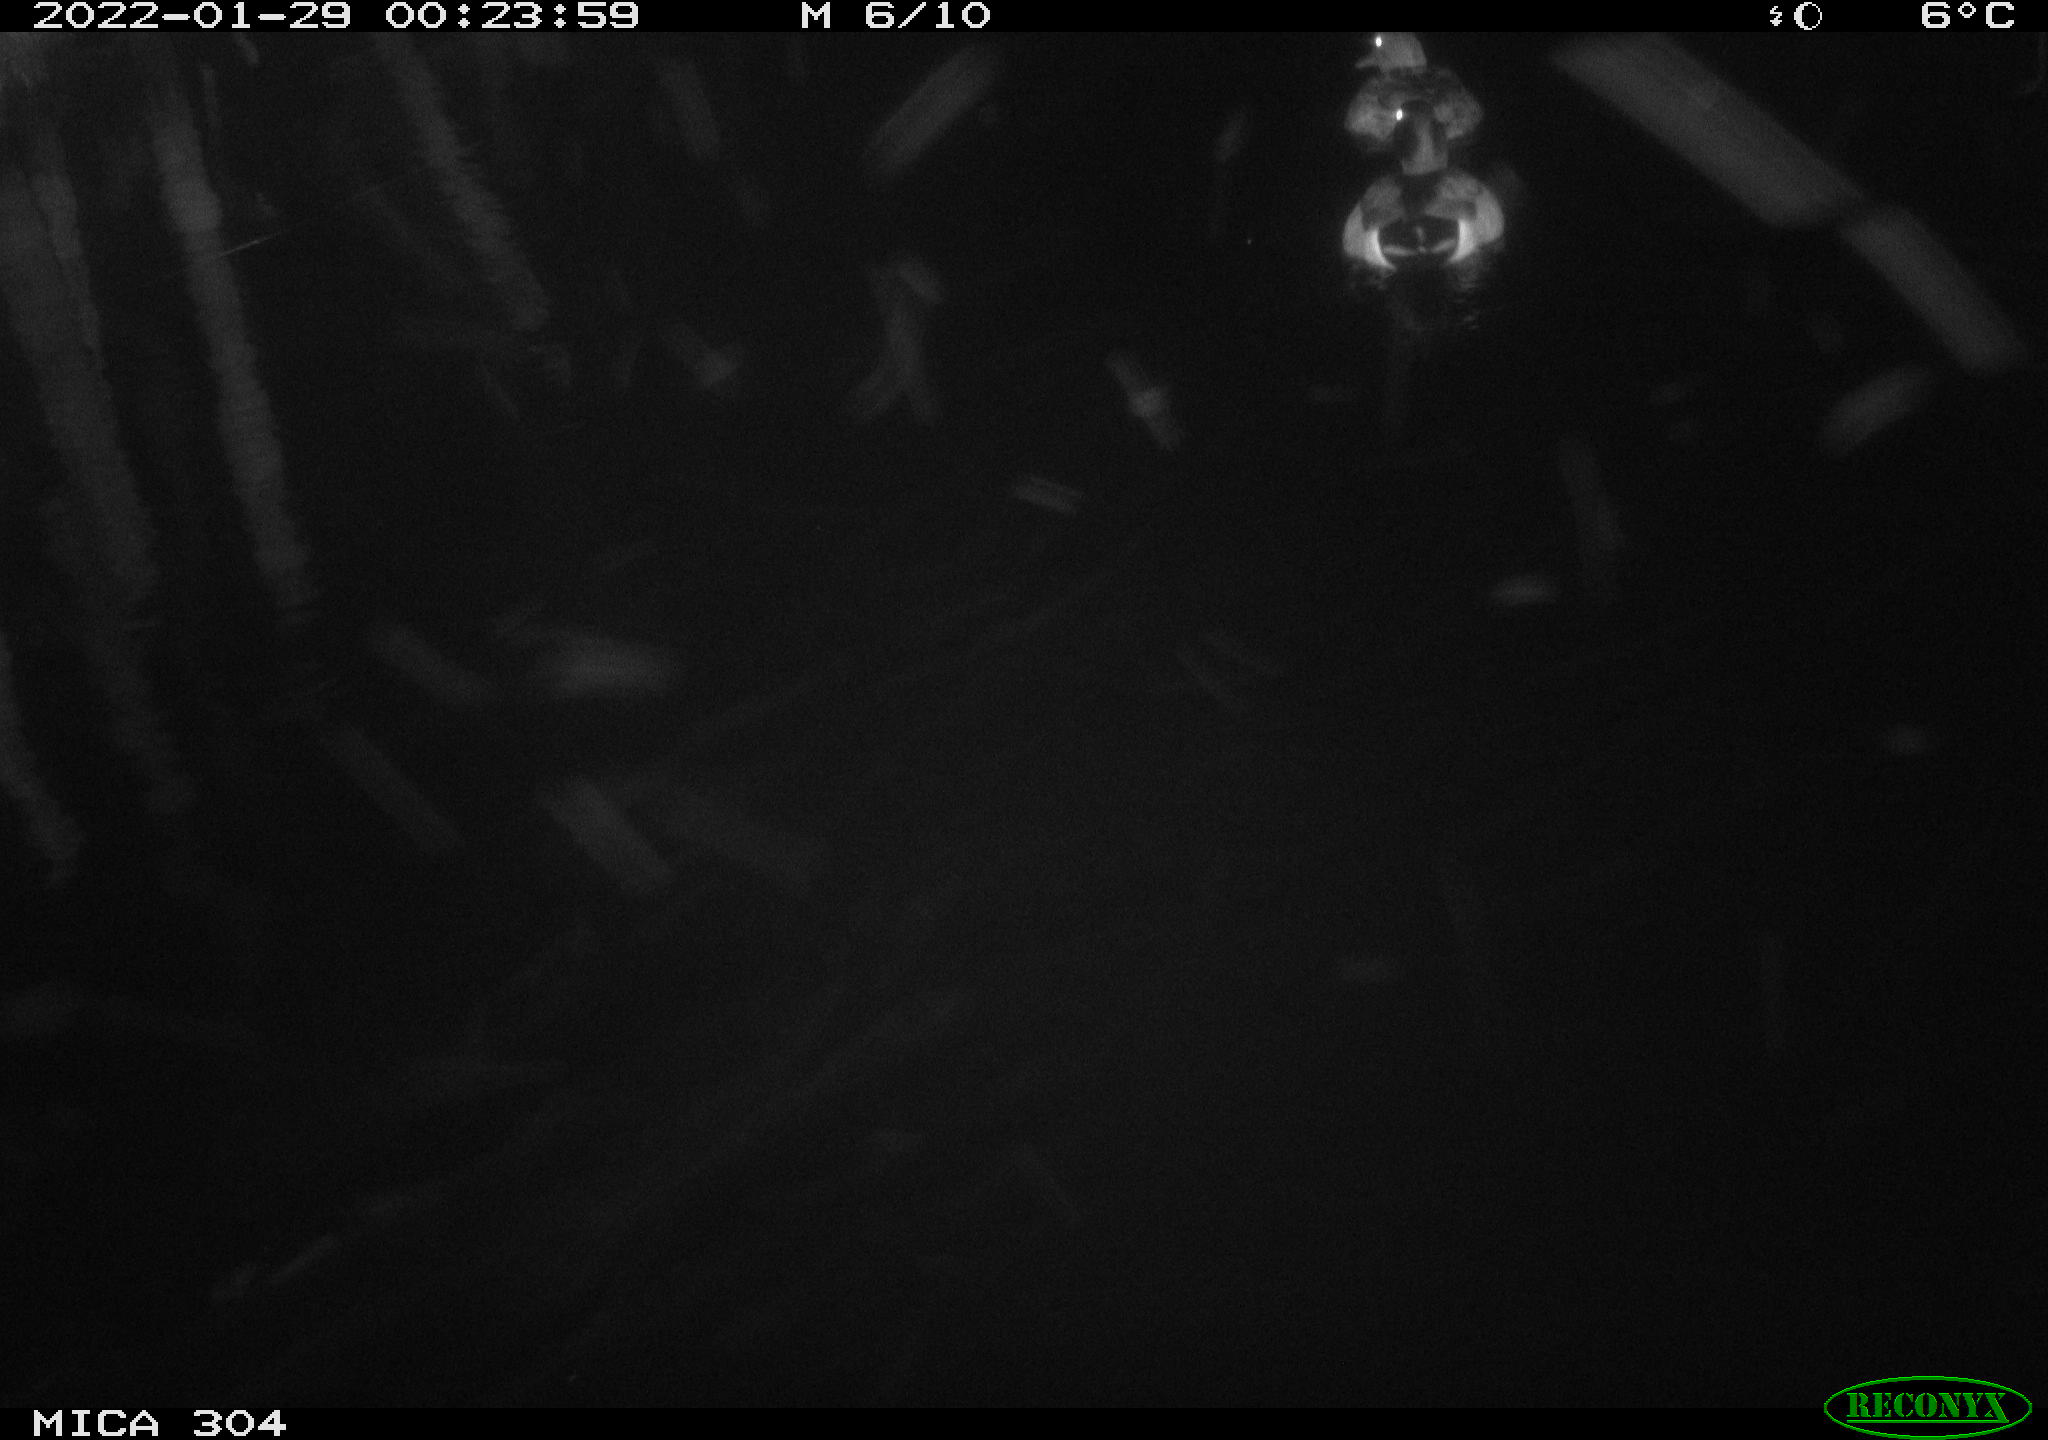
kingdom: Animalia
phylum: Chordata
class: Aves
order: Anseriformes
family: Anatidae
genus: Anas
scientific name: Anas
